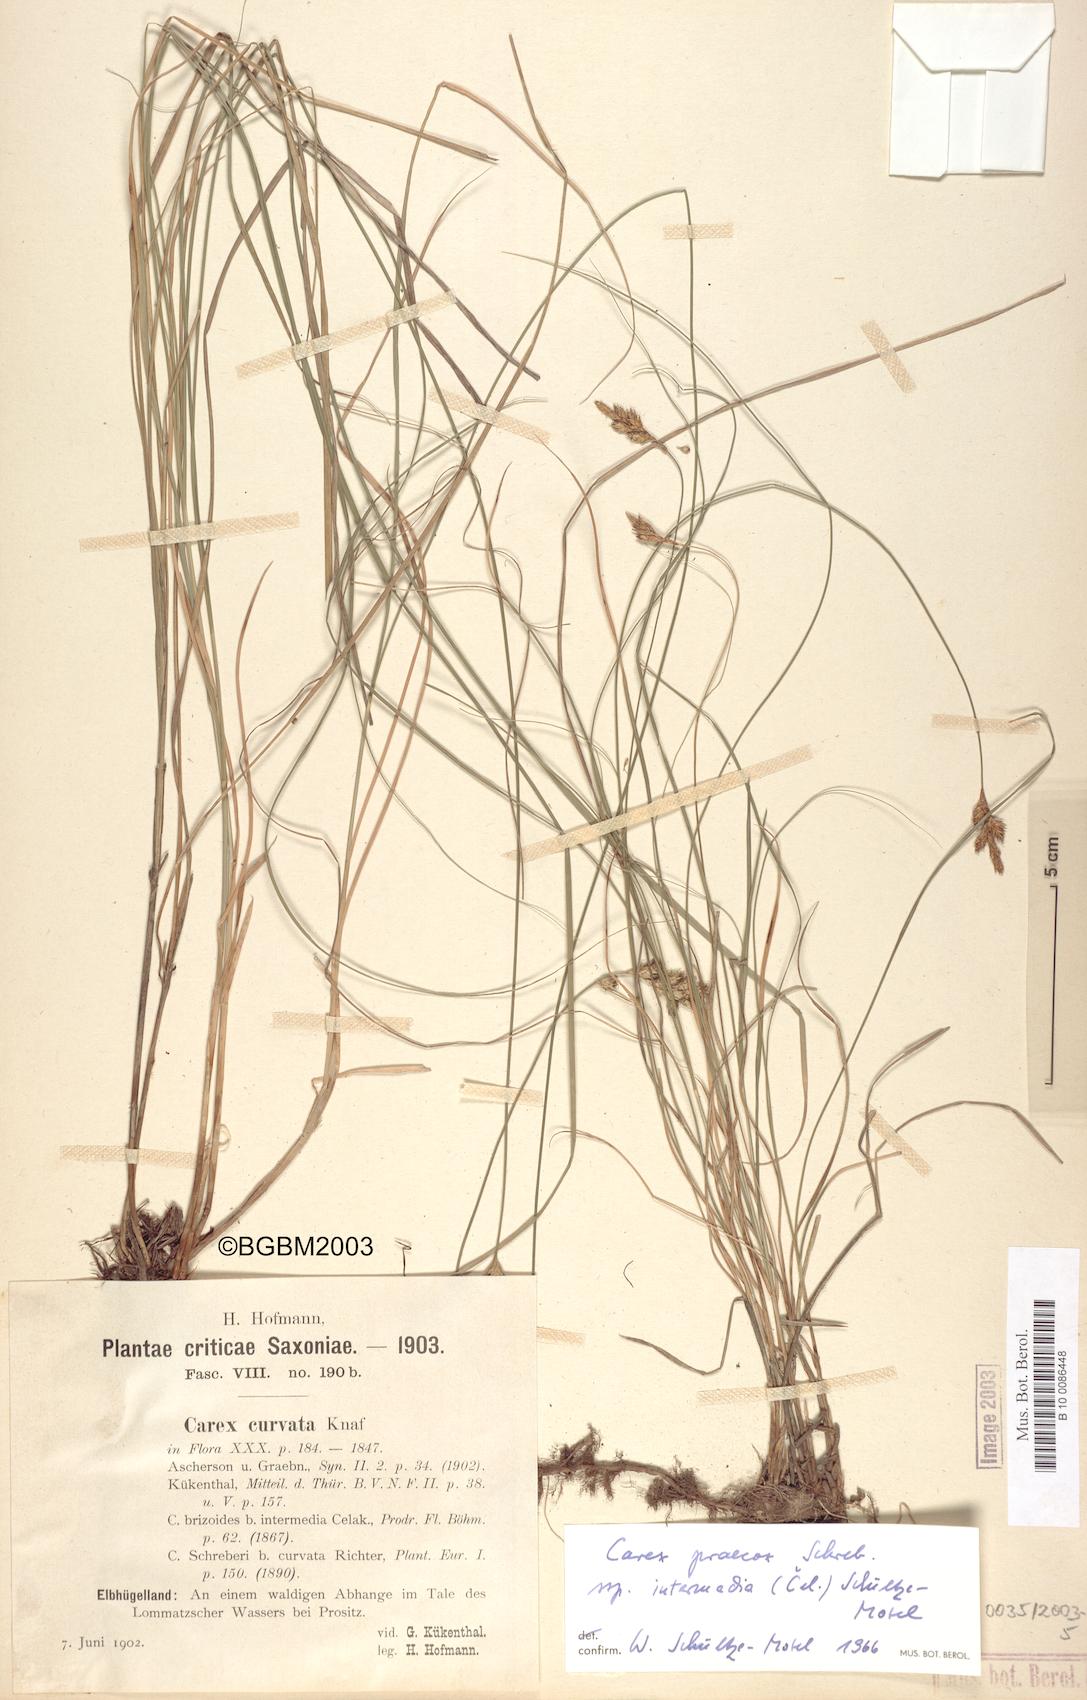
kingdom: Plantae
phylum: Tracheophyta
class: Liliopsida
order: Poales
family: Cyperaceae
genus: Carex
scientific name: Carex curvata
